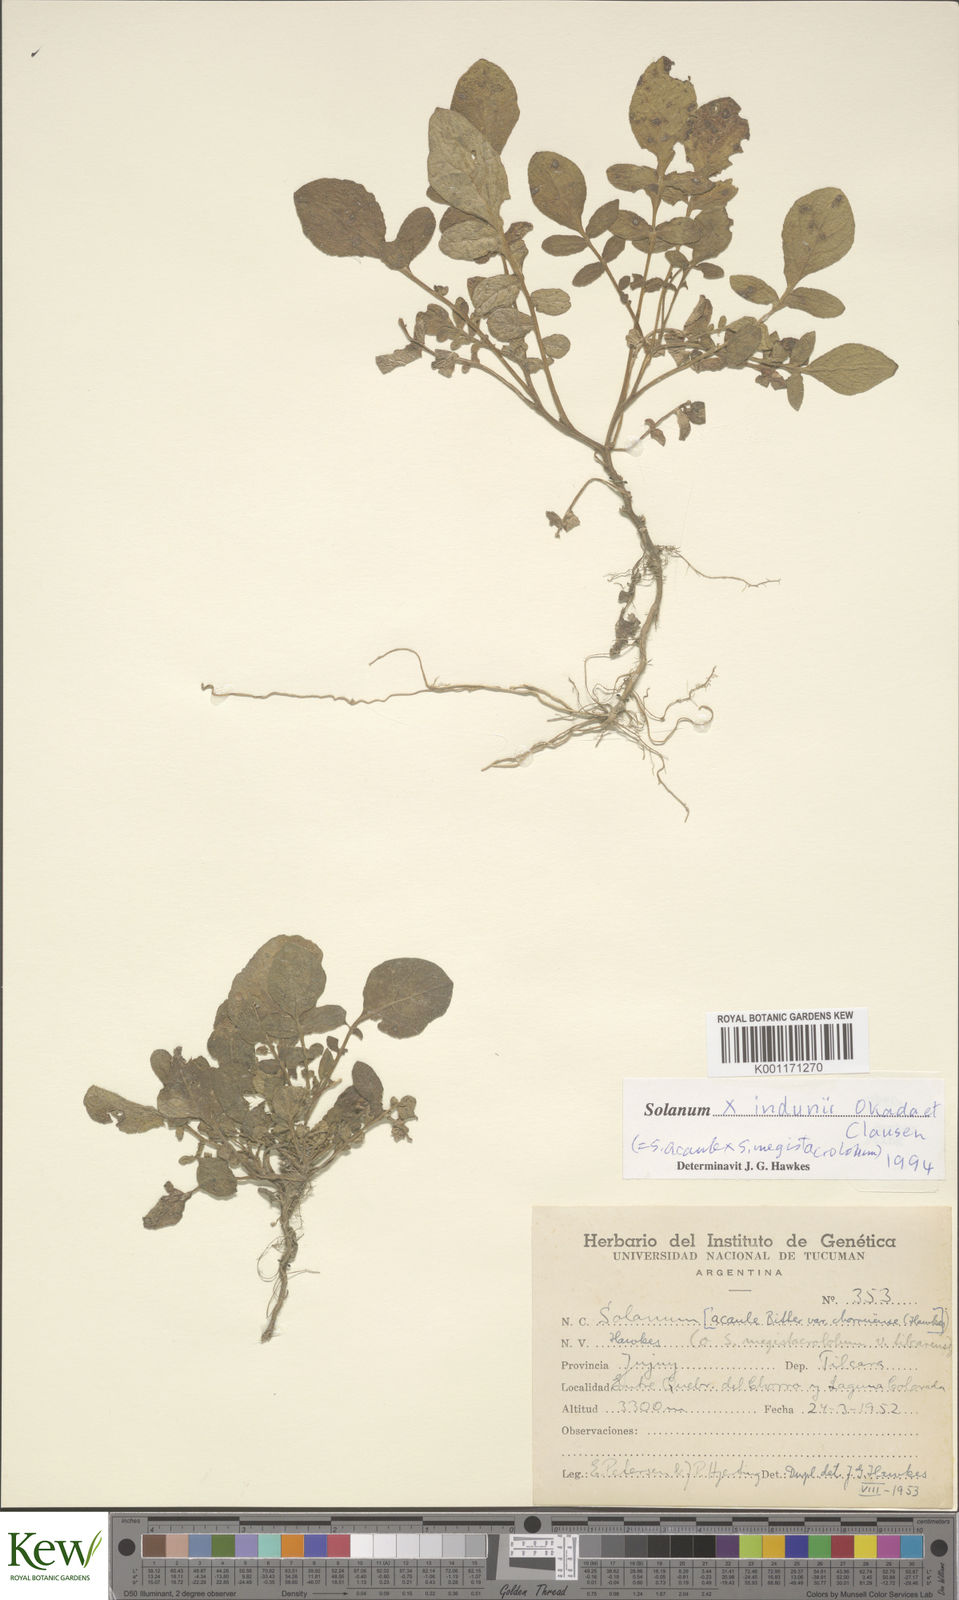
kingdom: Plantae
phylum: Tracheophyta
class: Magnoliopsida
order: Solanales
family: Solanaceae
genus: Solanum
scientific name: Solanum
